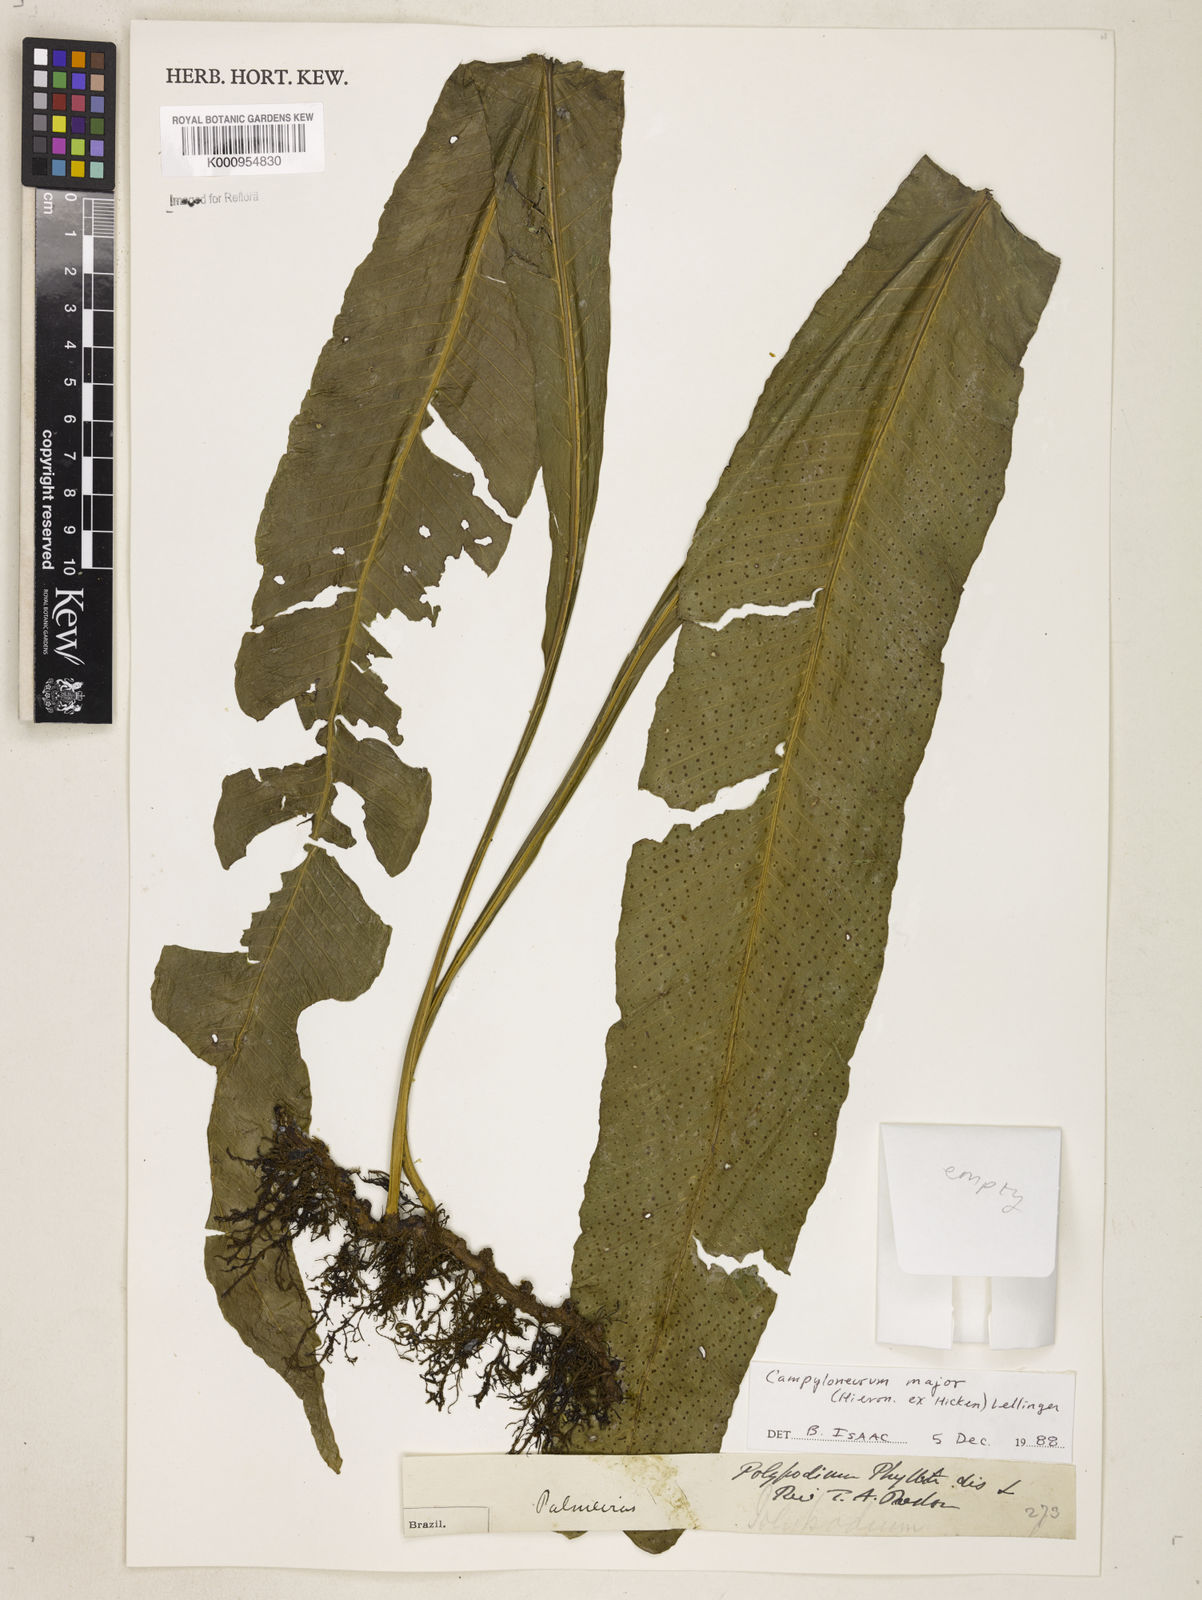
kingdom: Plantae
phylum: Tracheophyta
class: Polypodiopsida
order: Polypodiales
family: Polypodiaceae
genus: Campyloneurum
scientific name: Campyloneurum majus
